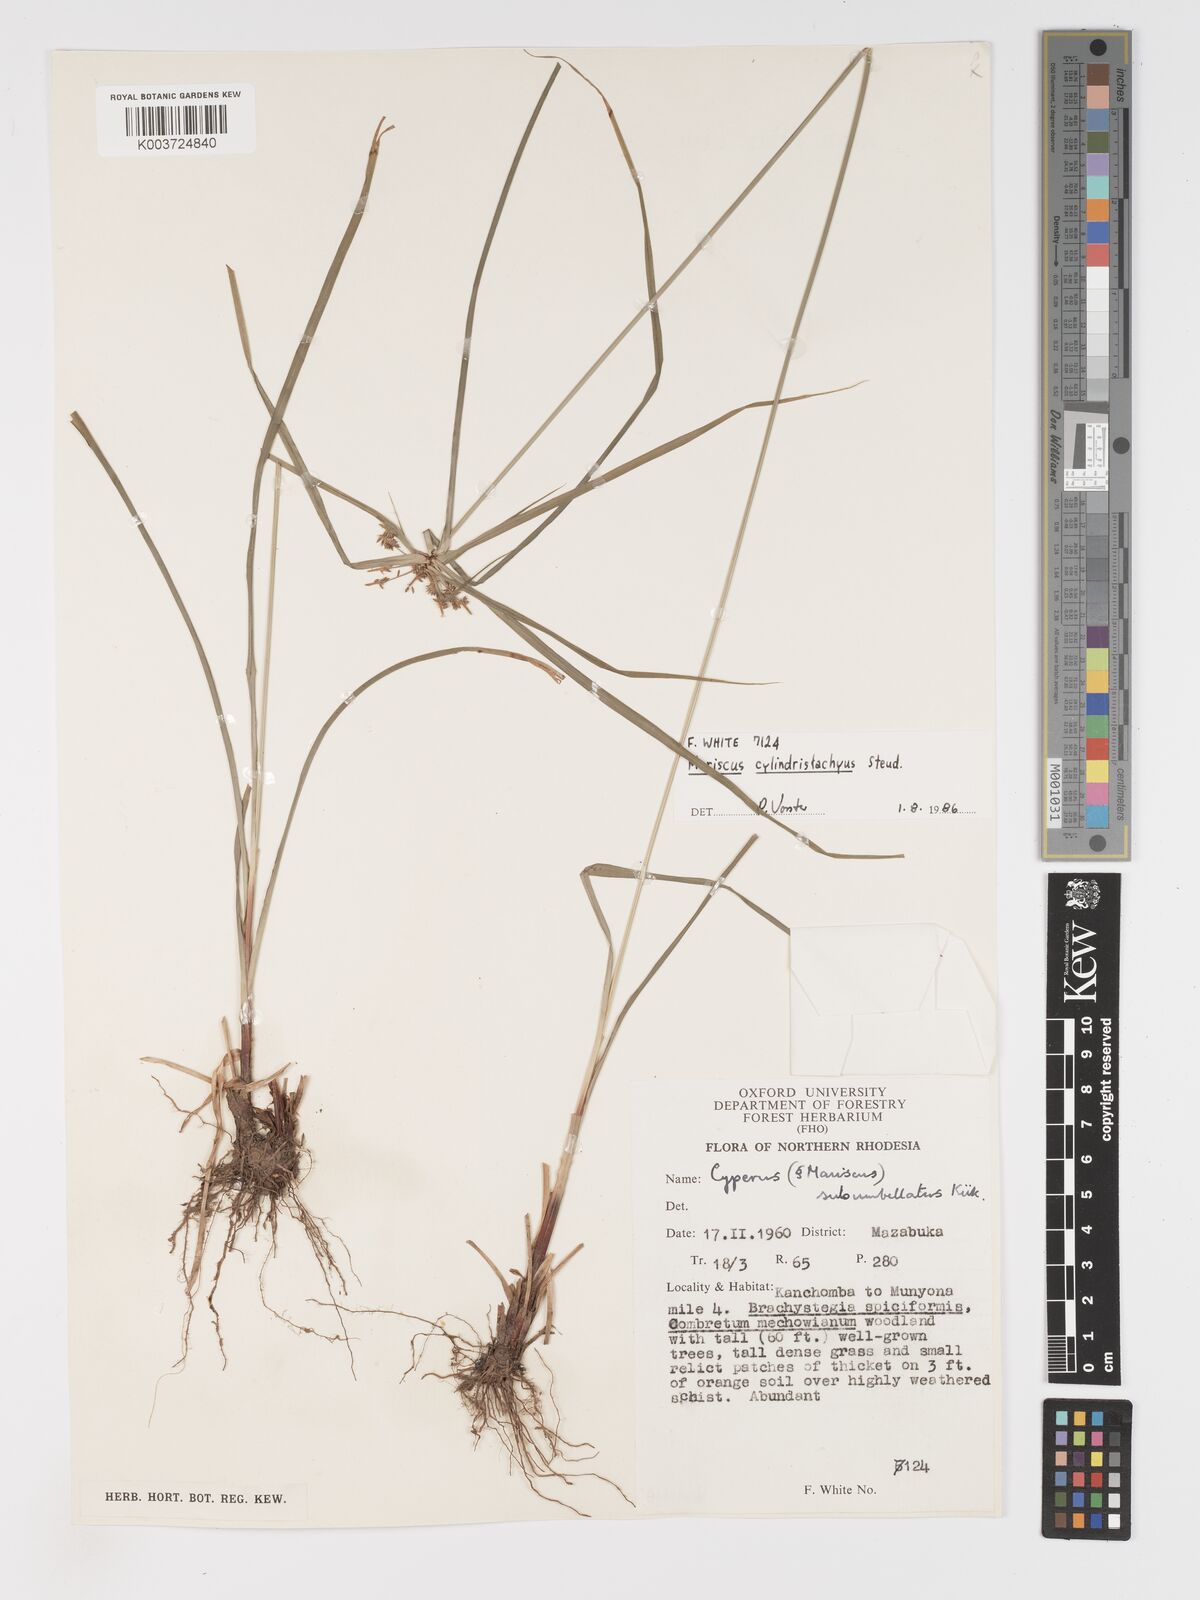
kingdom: Plantae
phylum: Tracheophyta
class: Liliopsida
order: Poales
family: Cyperaceae
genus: Cyperus
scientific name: Cyperus cyperoides
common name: Pacific island flat sedge
